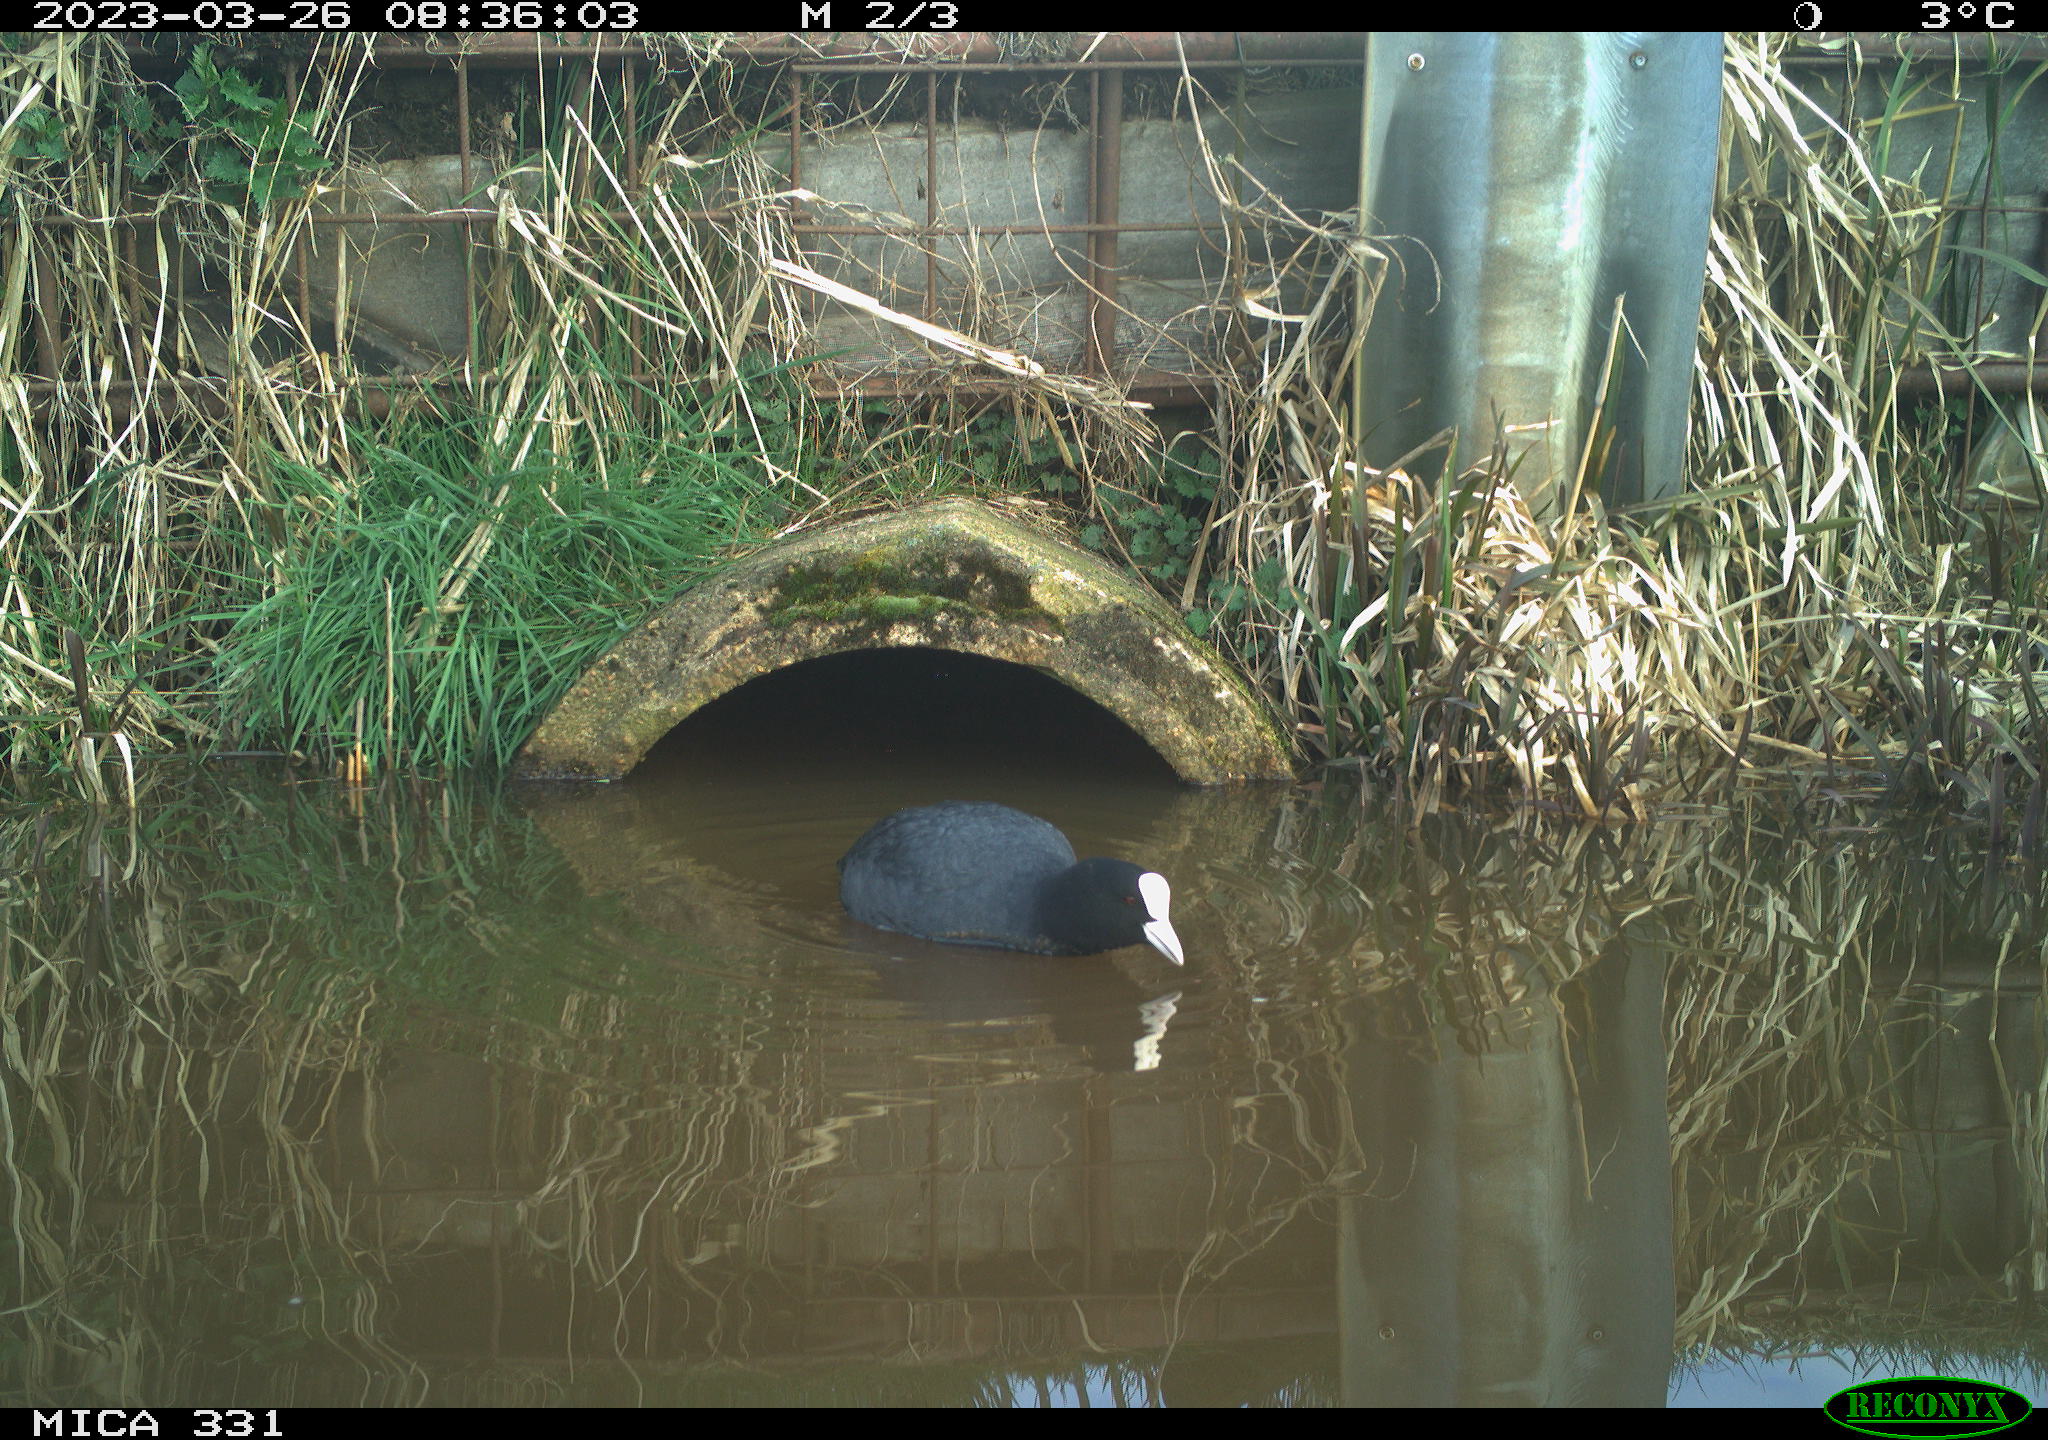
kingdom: Animalia
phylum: Chordata
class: Aves
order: Gruiformes
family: Rallidae
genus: Fulica
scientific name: Fulica atra
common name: Eurasian coot
